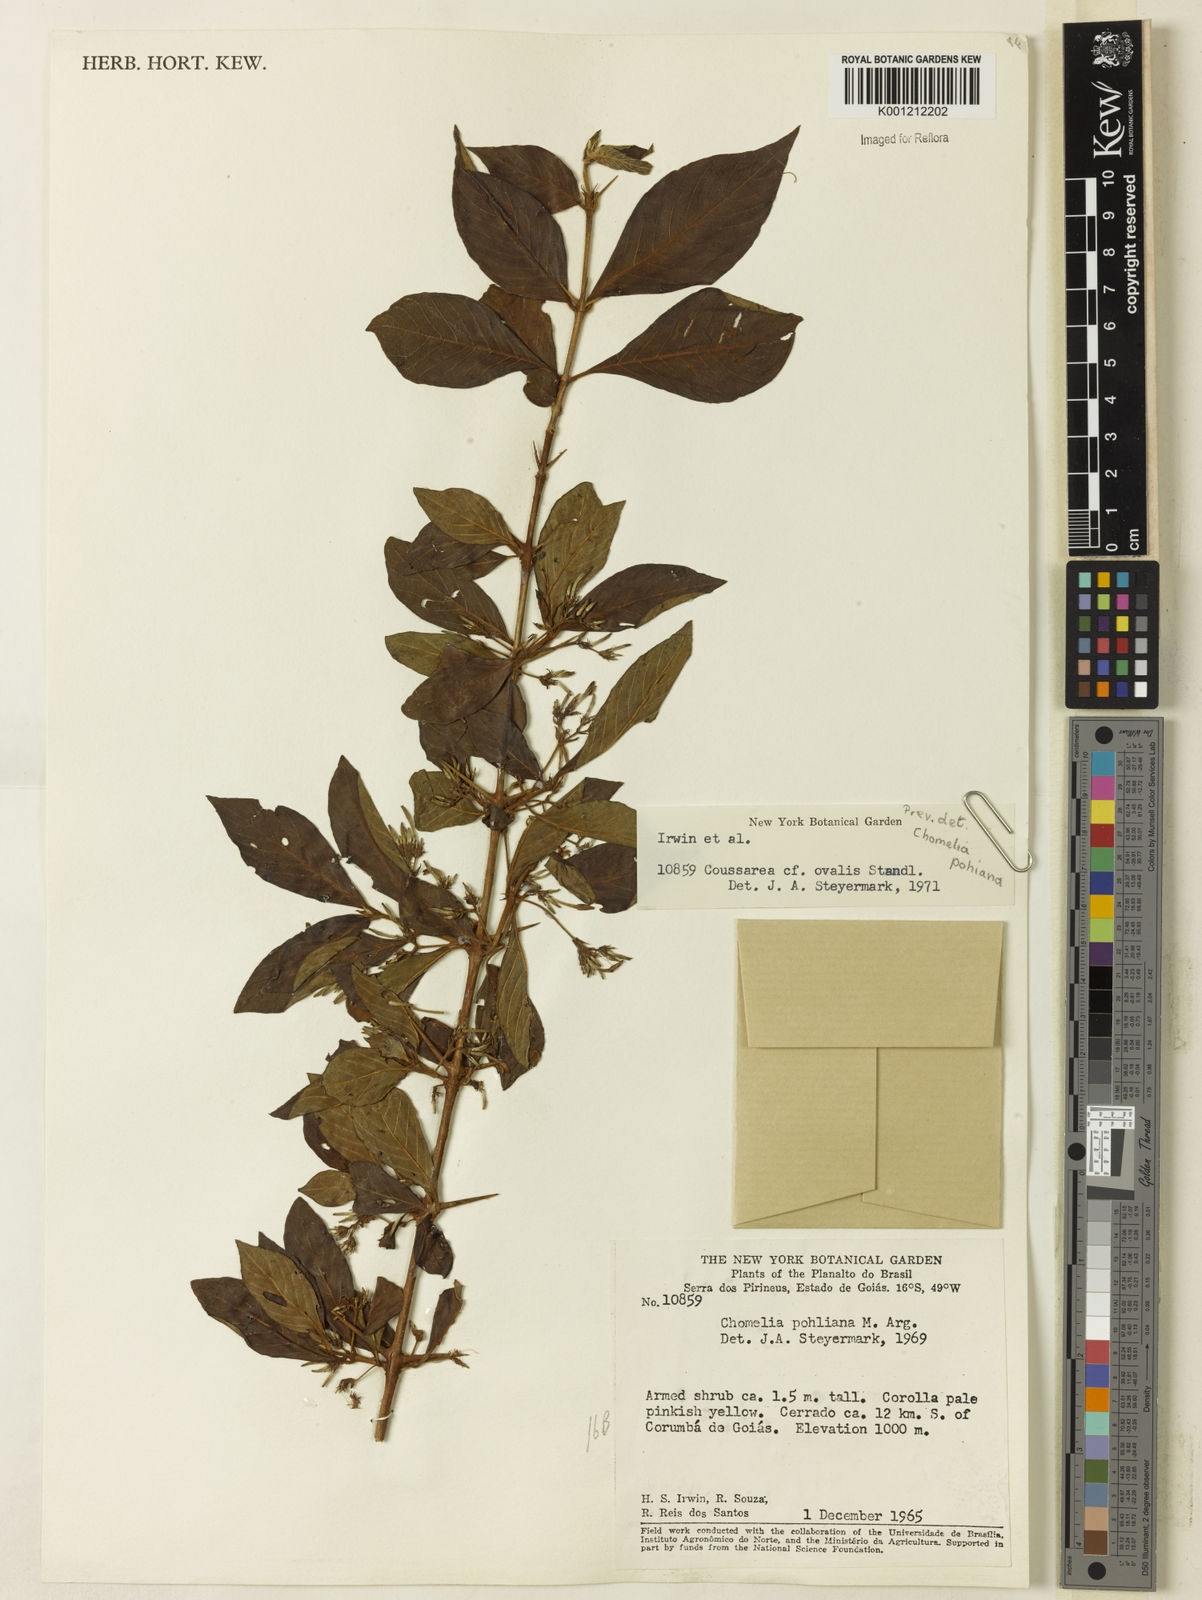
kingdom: Plantae
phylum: Tracheophyta
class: Magnoliopsida
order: Gentianales
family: Rubiaceae
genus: Chomelia
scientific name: Chomelia
